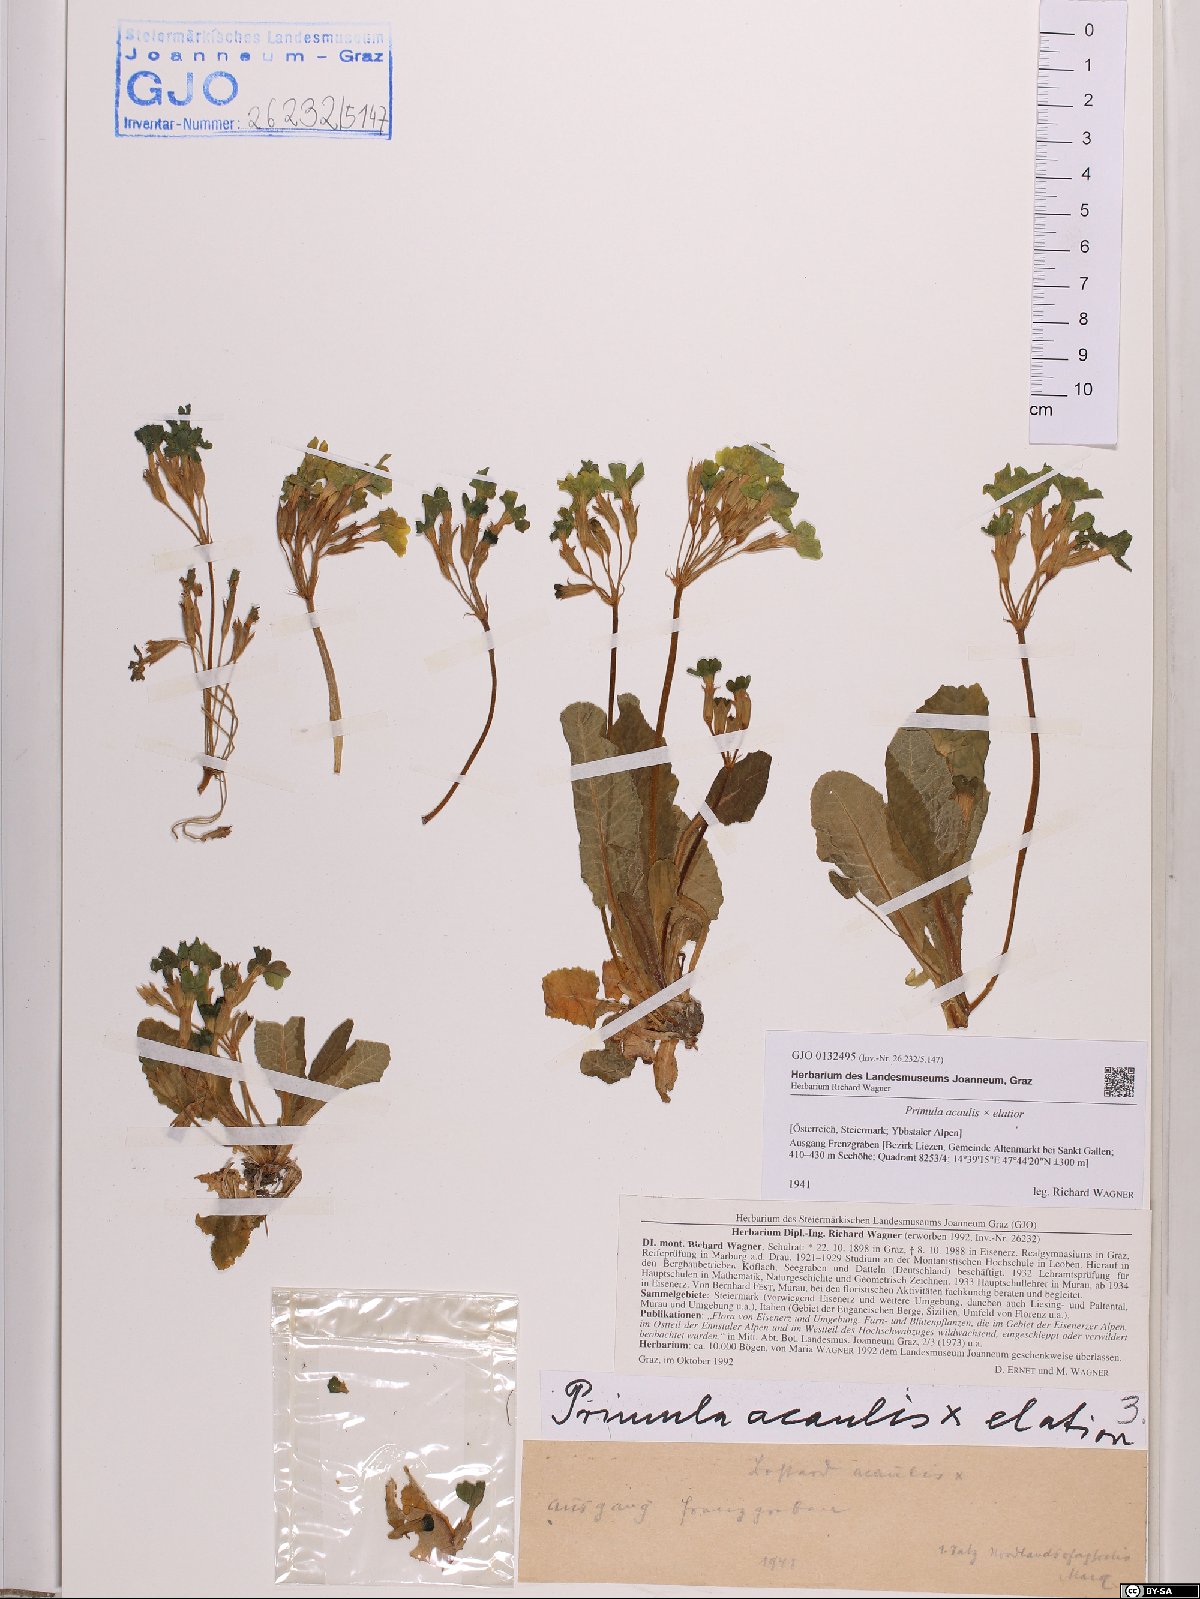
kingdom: Plantae
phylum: Tracheophyta
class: Magnoliopsida
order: Ericales
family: Primulaceae
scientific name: Primulaceae
